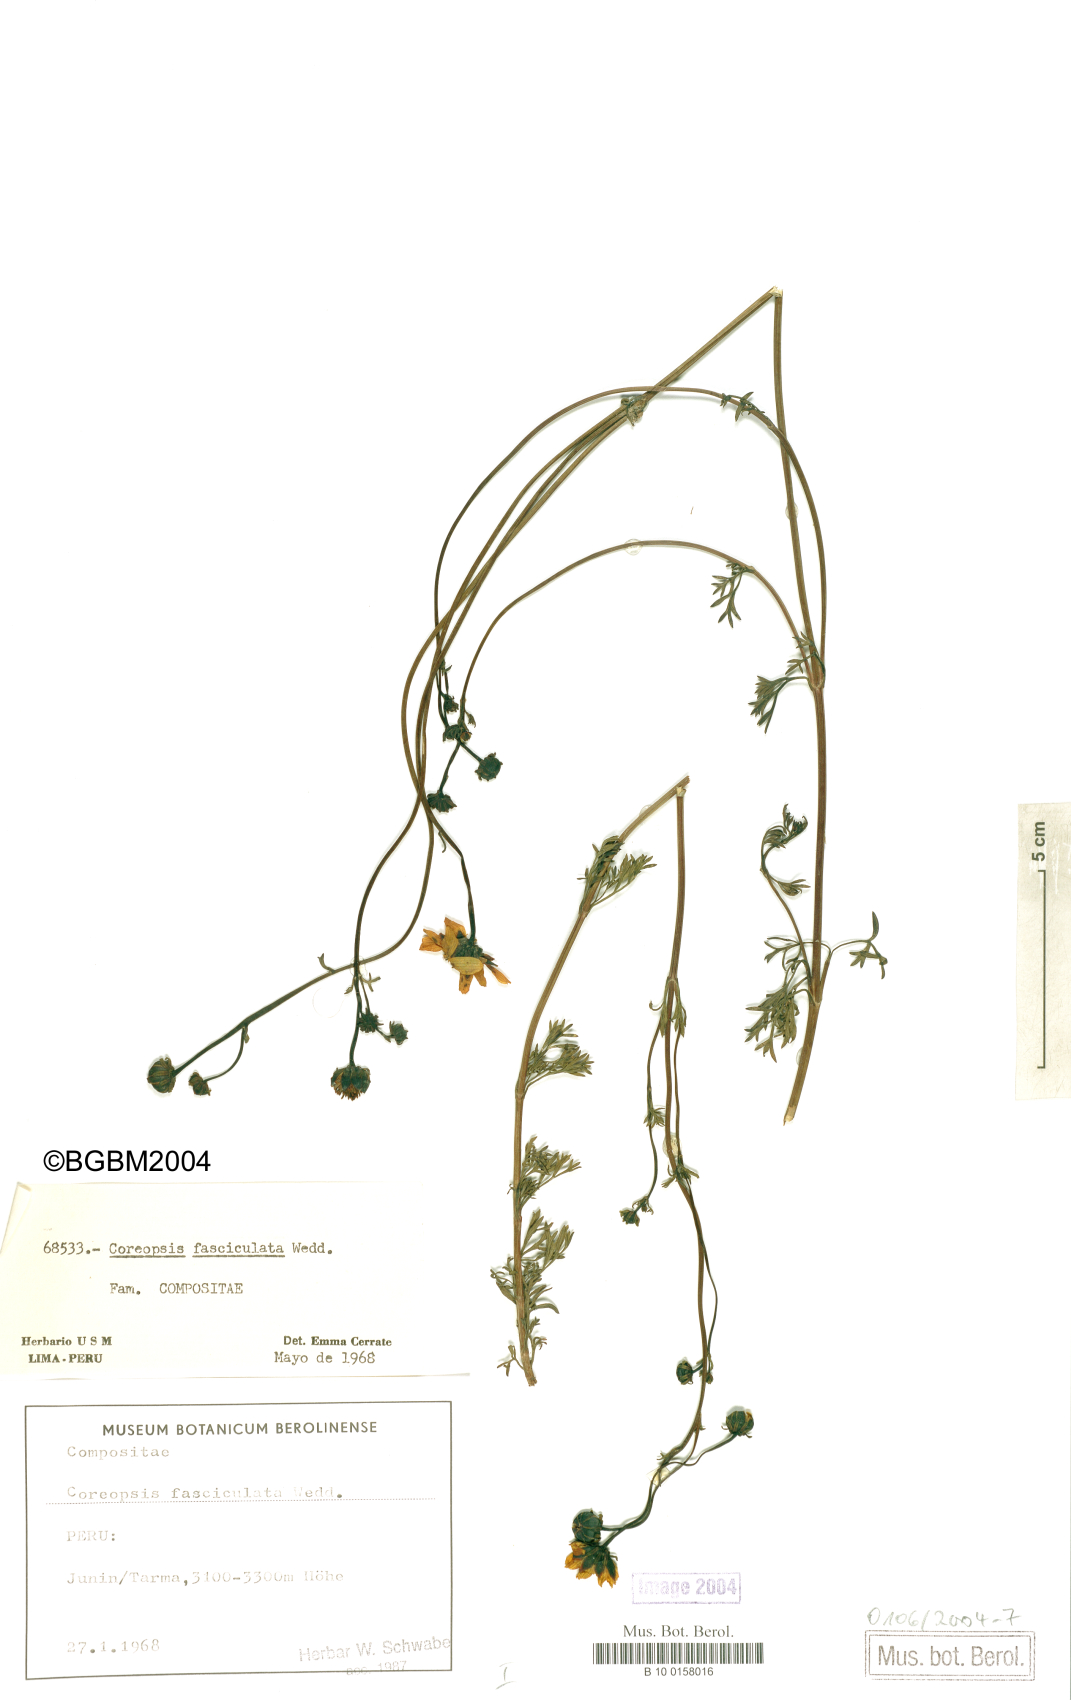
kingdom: Plantae
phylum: Tracheophyta
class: Magnoliopsida
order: Asterales
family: Asteraceae
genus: Coreopsis
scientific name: Coreopsis fasciculata
